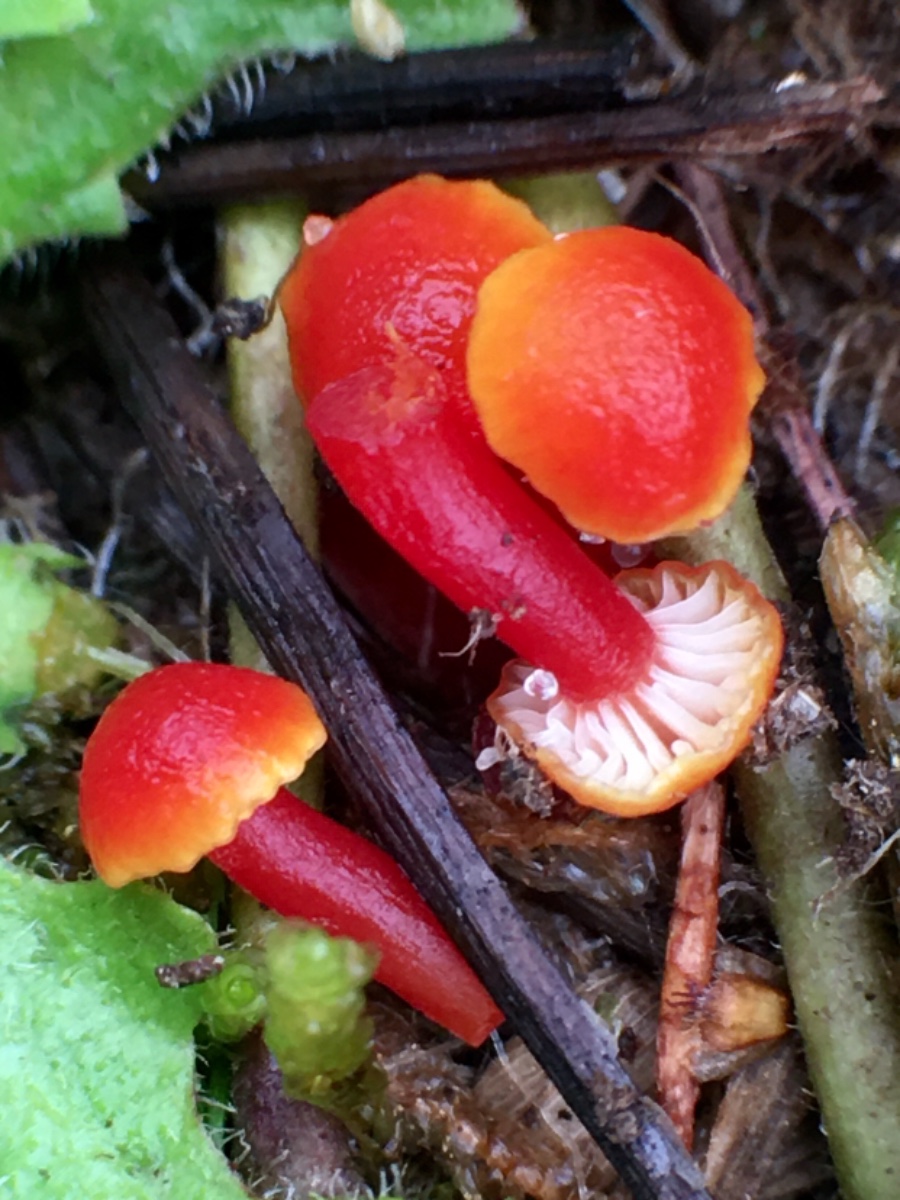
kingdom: Fungi
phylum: Basidiomycota
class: Agaricomycetes
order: Agaricales
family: Hygrophoraceae
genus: Hygrocybe
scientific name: Hygrocybe insipida
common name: liden vokshat
